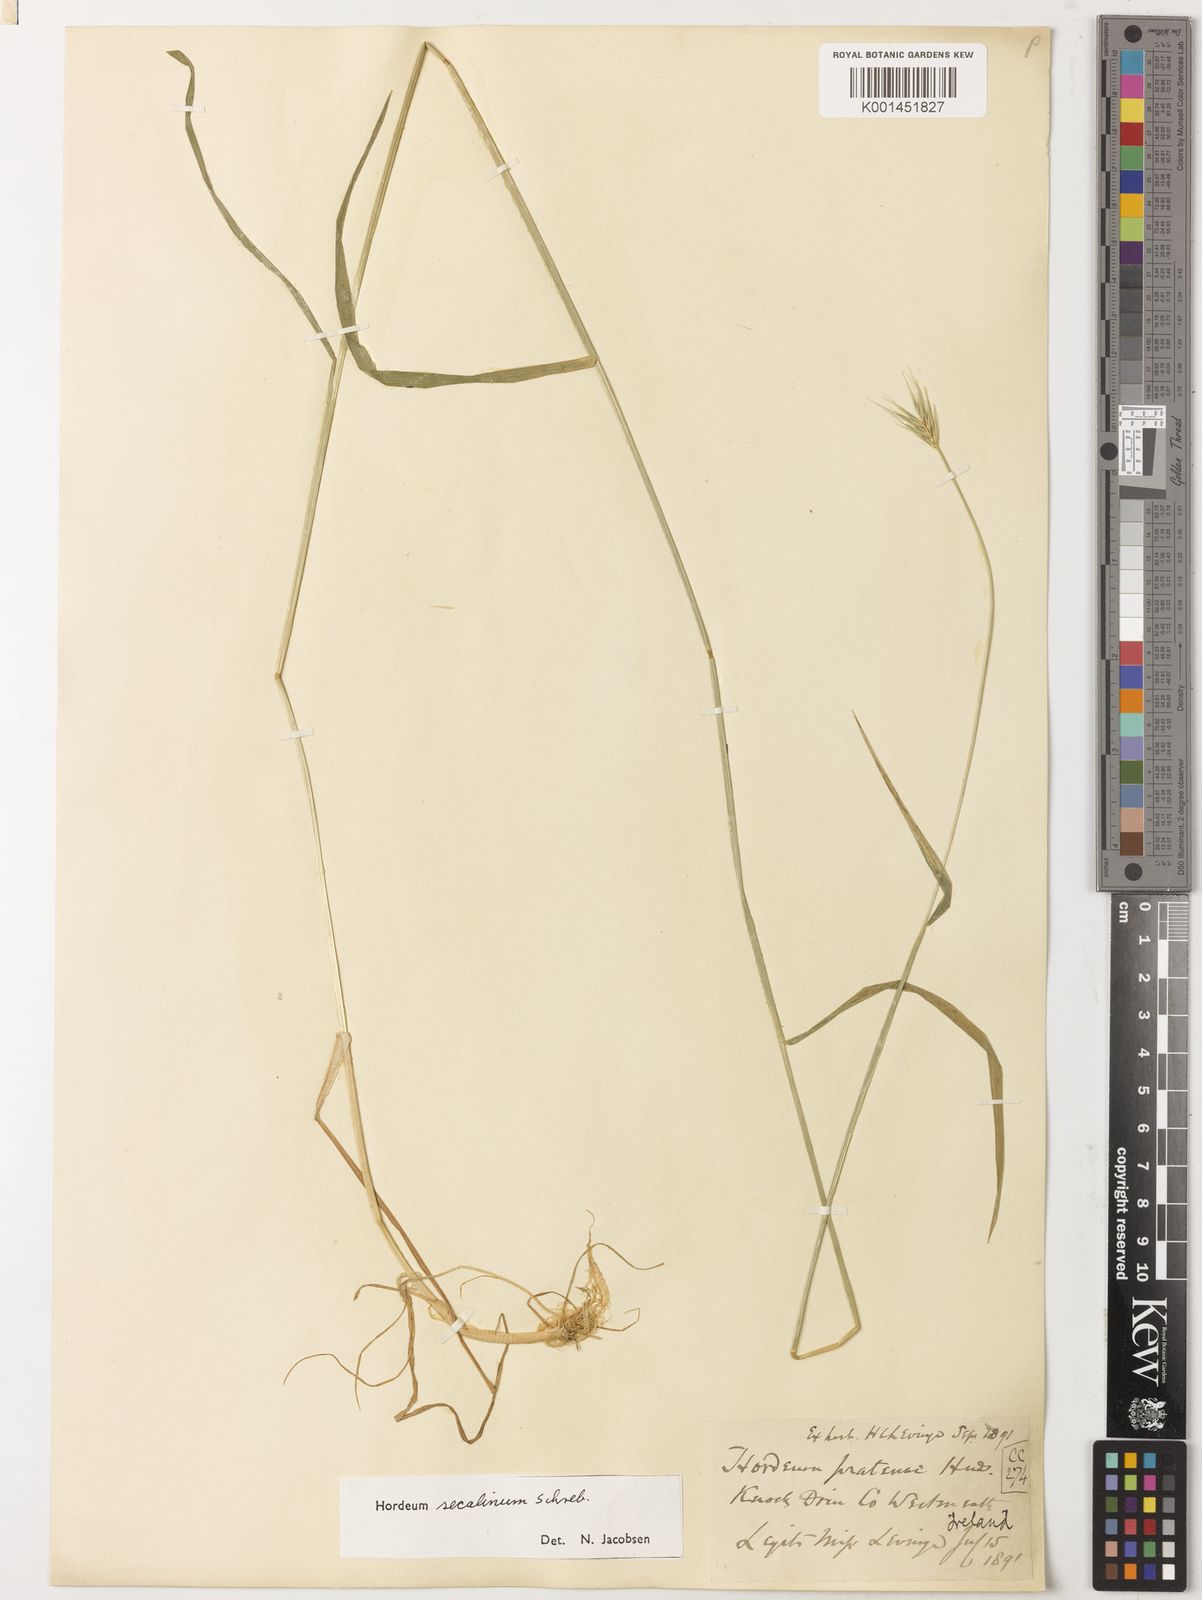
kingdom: Plantae
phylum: Tracheophyta
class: Liliopsida
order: Poales
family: Poaceae
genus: Hordeum
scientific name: Hordeum secalinum
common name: Meadow barley
